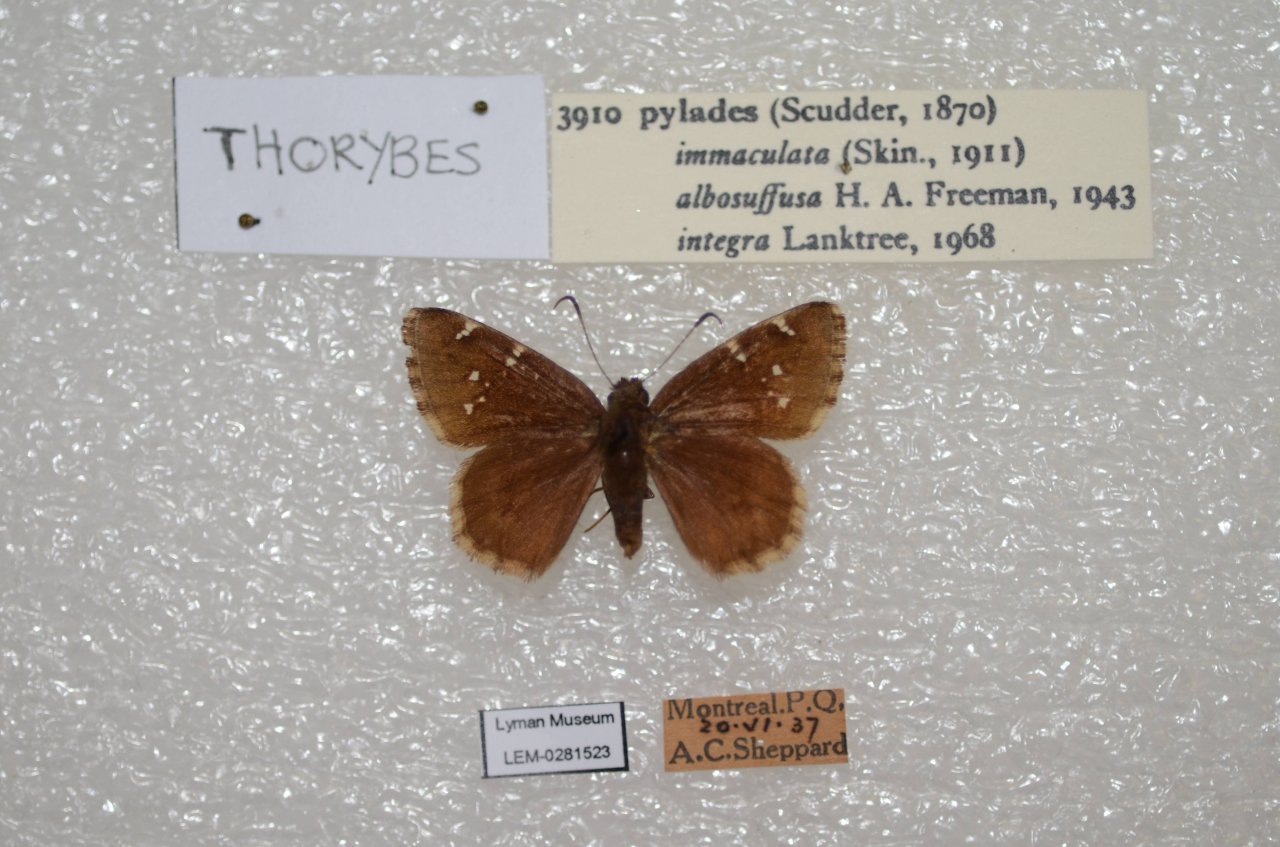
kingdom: Animalia
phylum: Arthropoda
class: Insecta
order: Lepidoptera
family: Hesperiidae
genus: Autochton
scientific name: Autochton
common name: Northern Cloudywing
